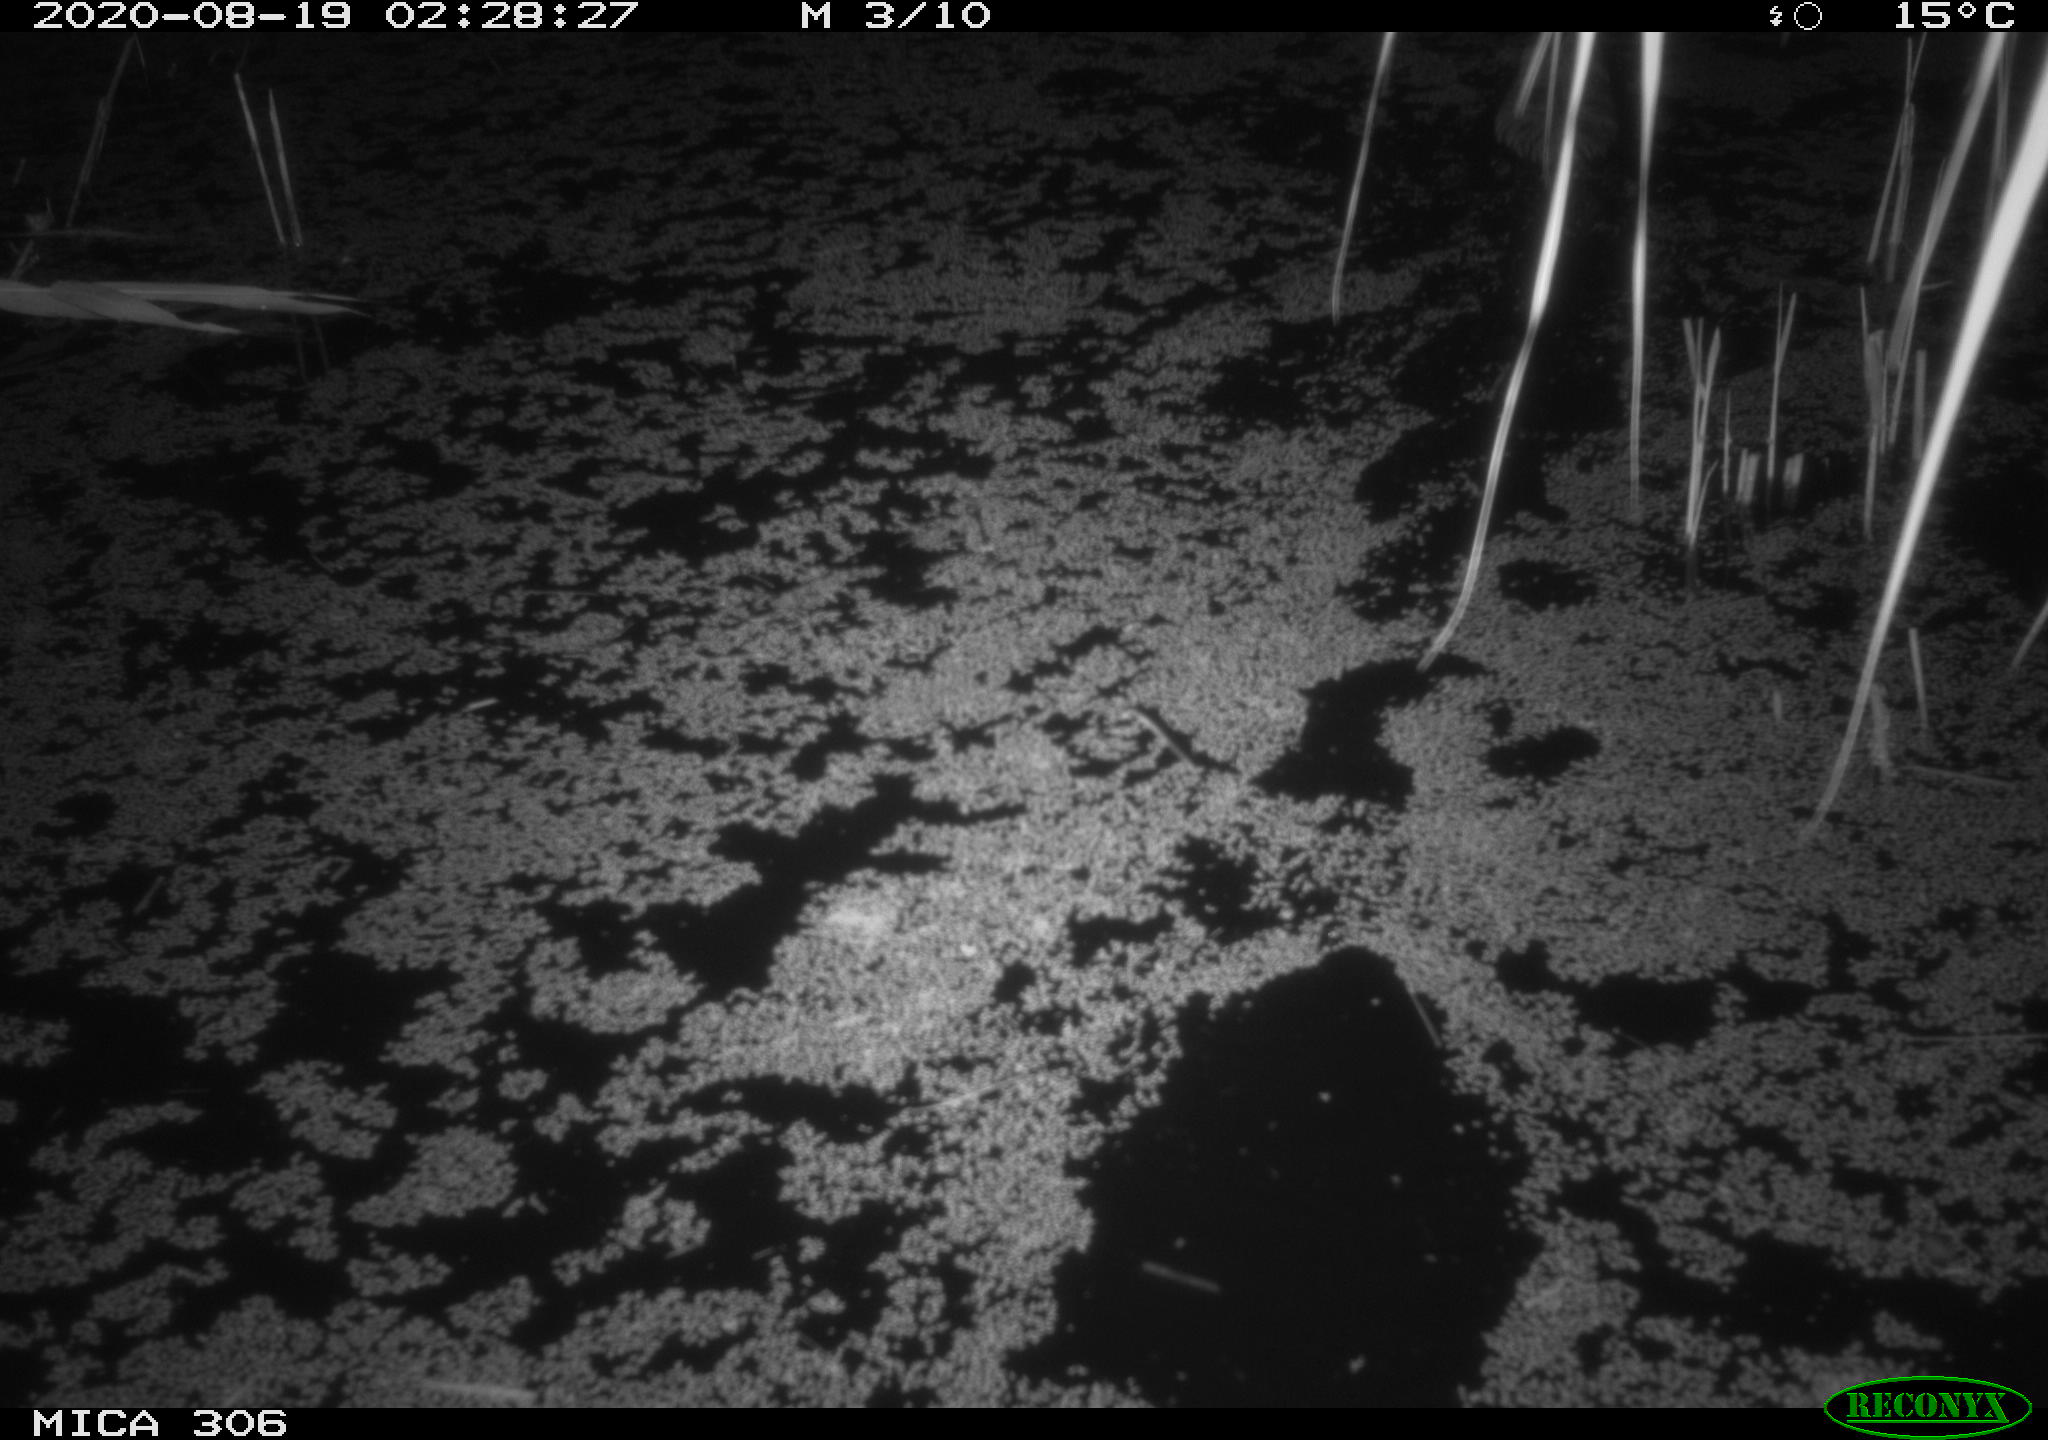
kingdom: Animalia
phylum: Chordata
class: Mammalia
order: Rodentia
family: Muridae
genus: Rattus
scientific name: Rattus norvegicus
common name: Brown rat
